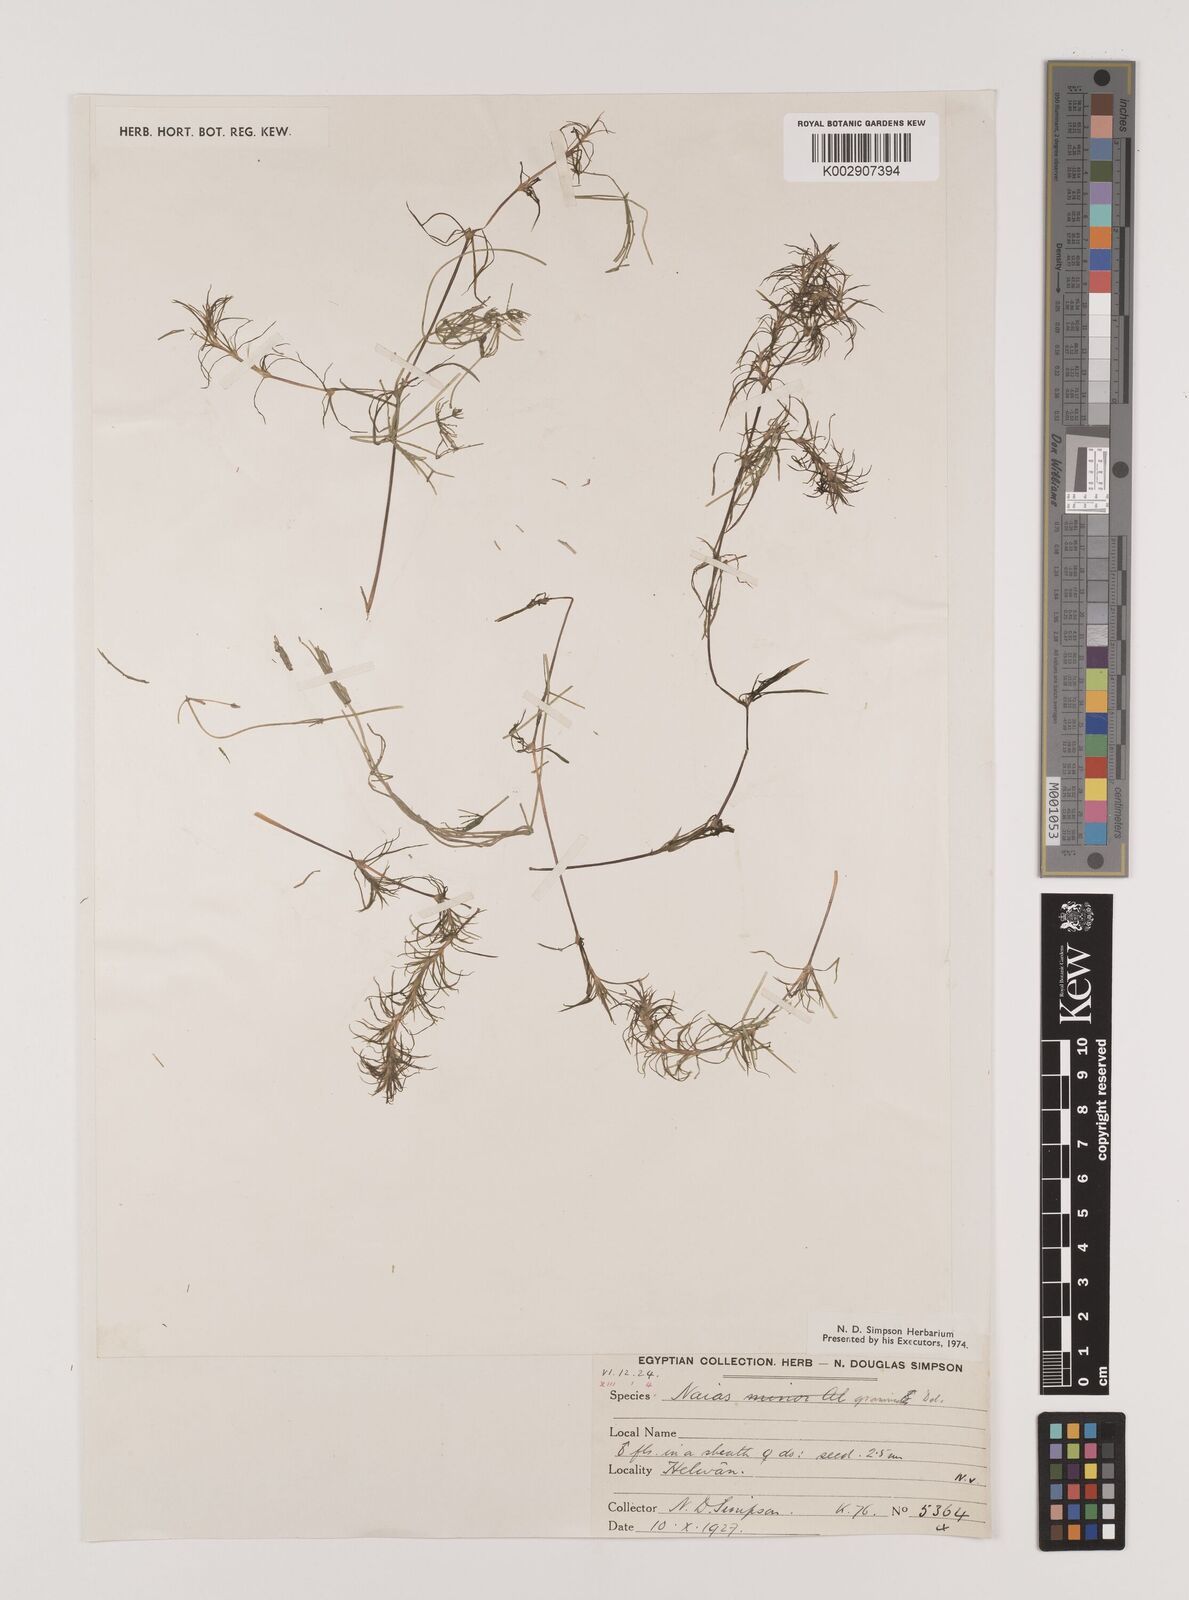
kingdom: Plantae
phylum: Tracheophyta
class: Liliopsida
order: Alismatales
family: Hydrocharitaceae
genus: Najas
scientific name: Najas graminea
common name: Ricefield waternymph
